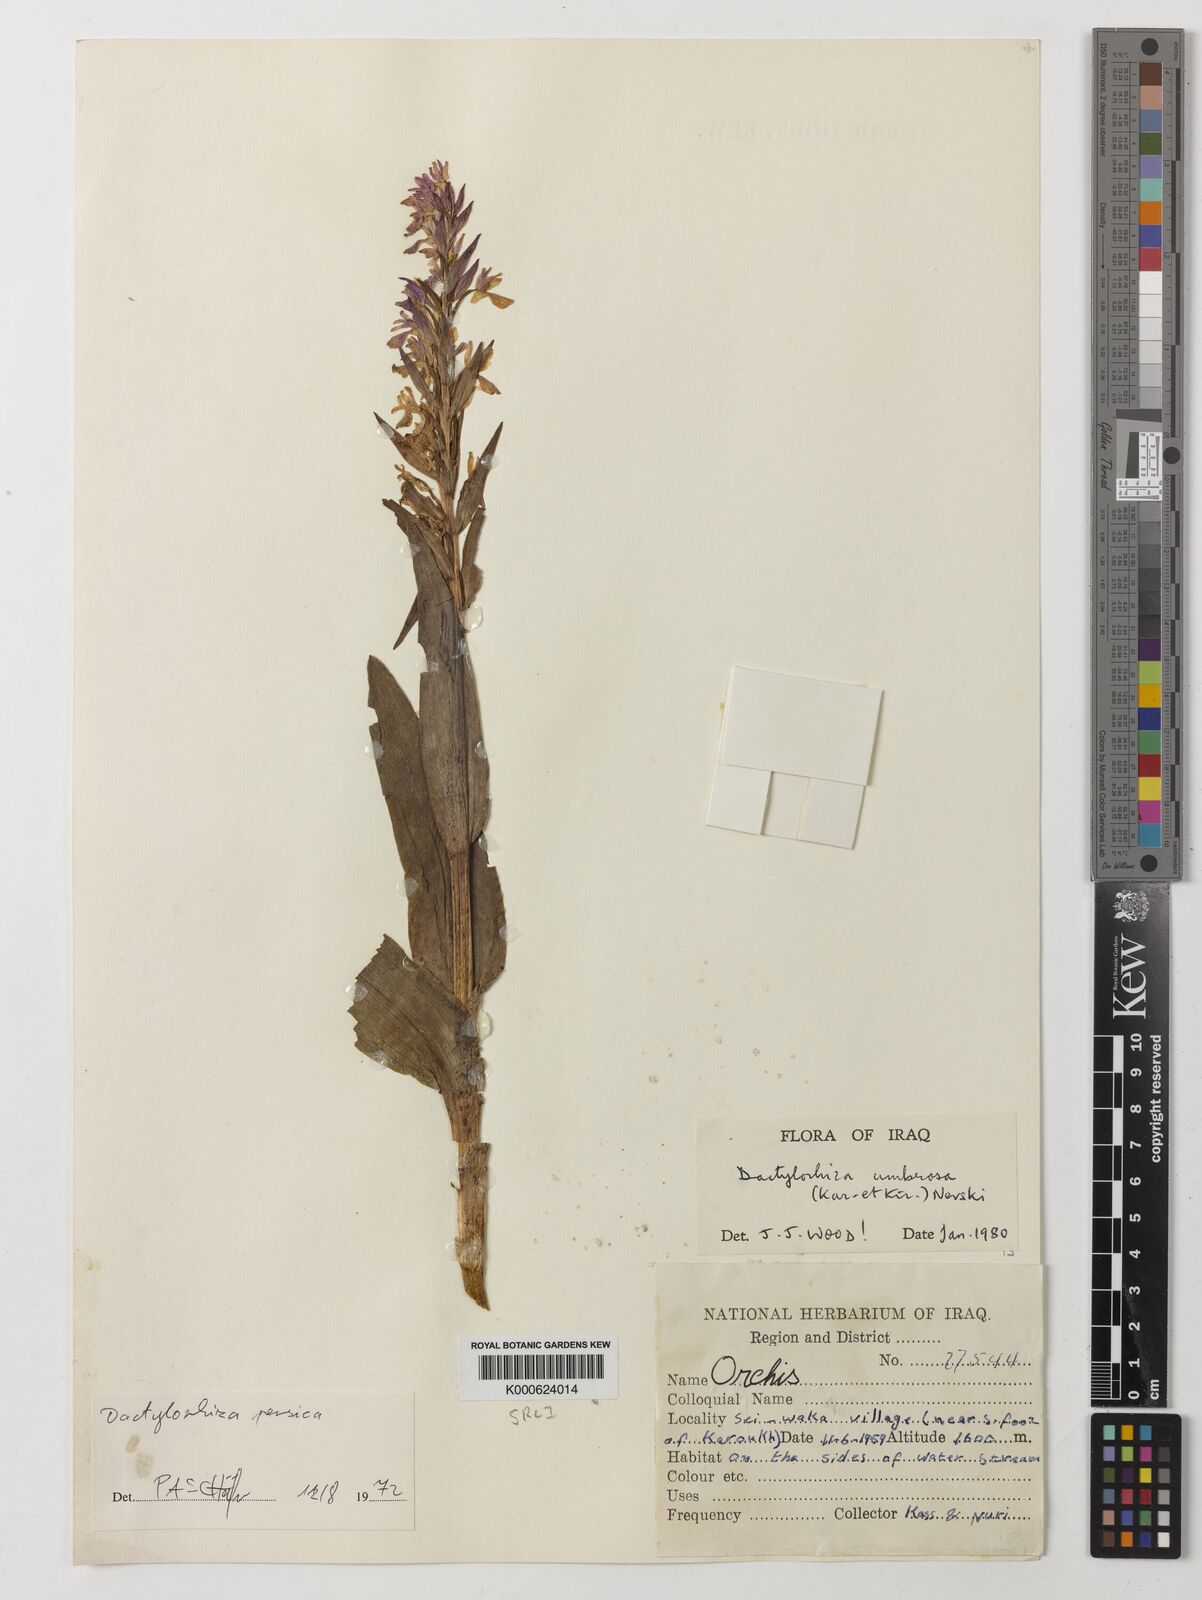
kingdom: Plantae
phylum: Tracheophyta
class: Liliopsida
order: Asparagales
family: Orchidaceae
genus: Dactylorhiza
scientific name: Dactylorhiza
